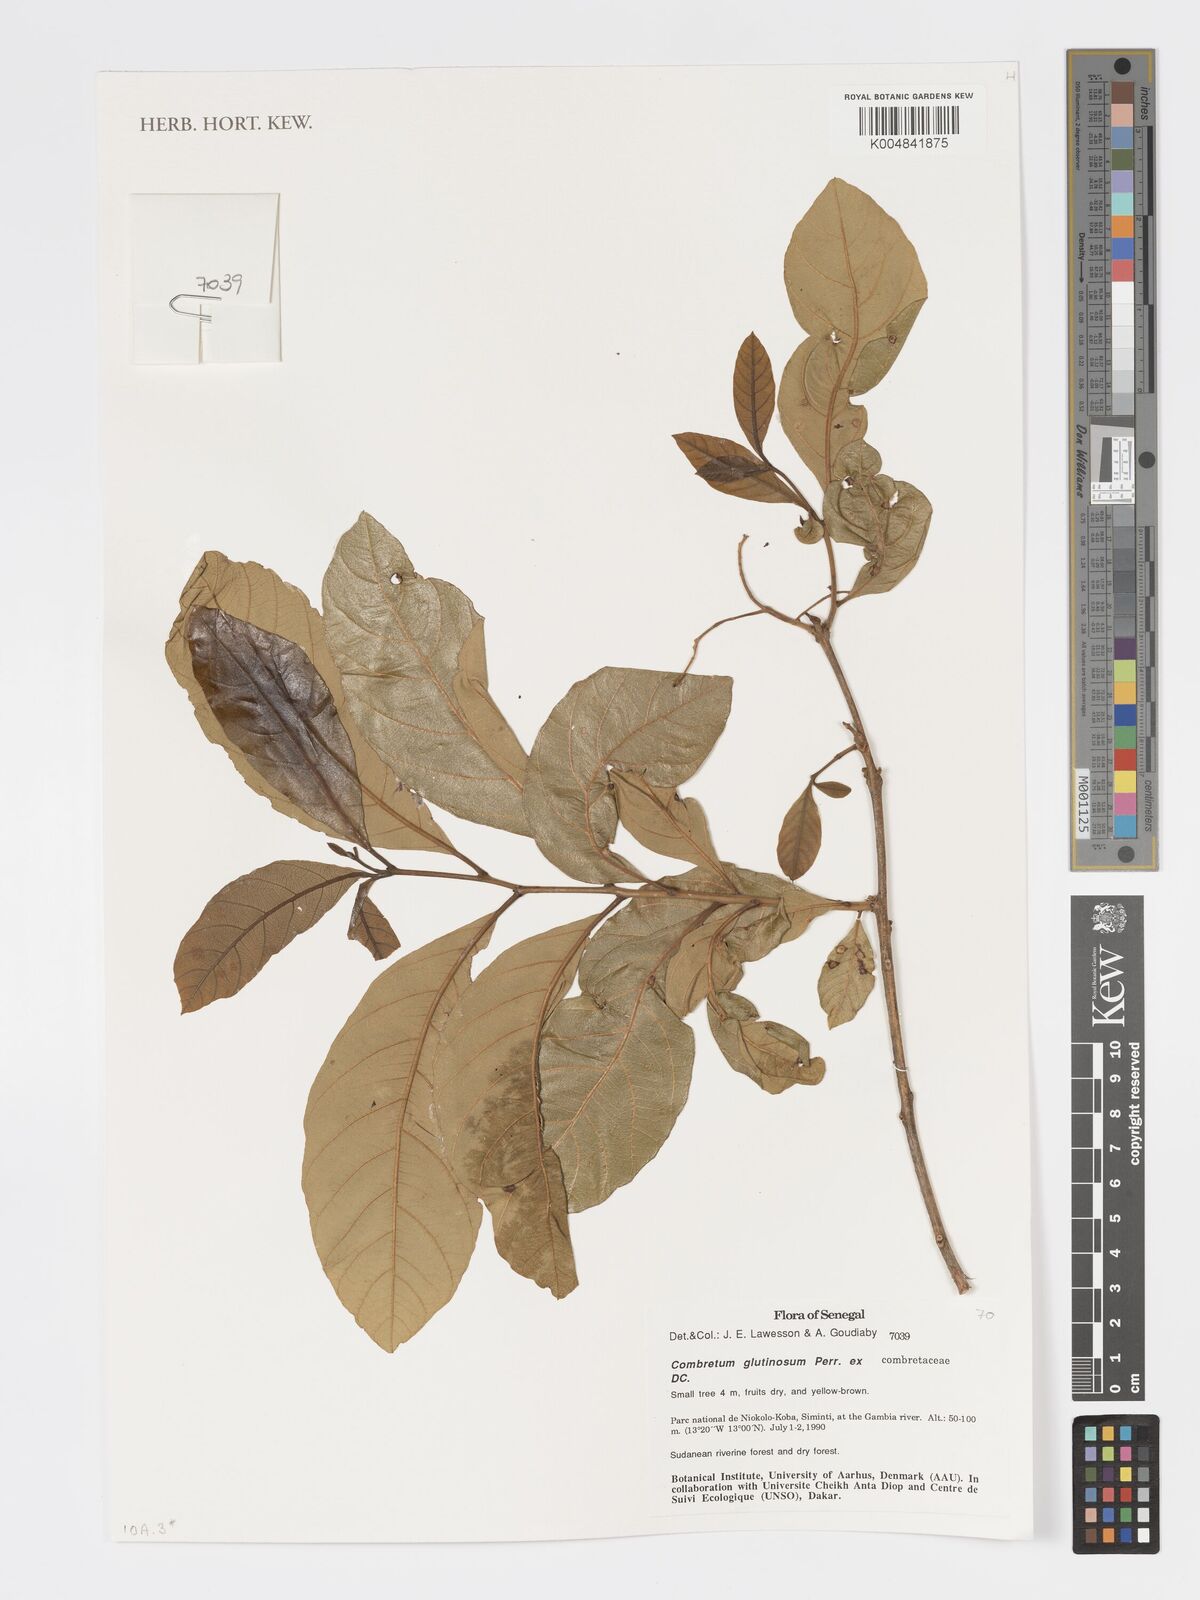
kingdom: Plantae
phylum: Tracheophyta
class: Magnoliopsida
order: Myrtales
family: Combretaceae
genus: Combretum
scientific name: Combretum
